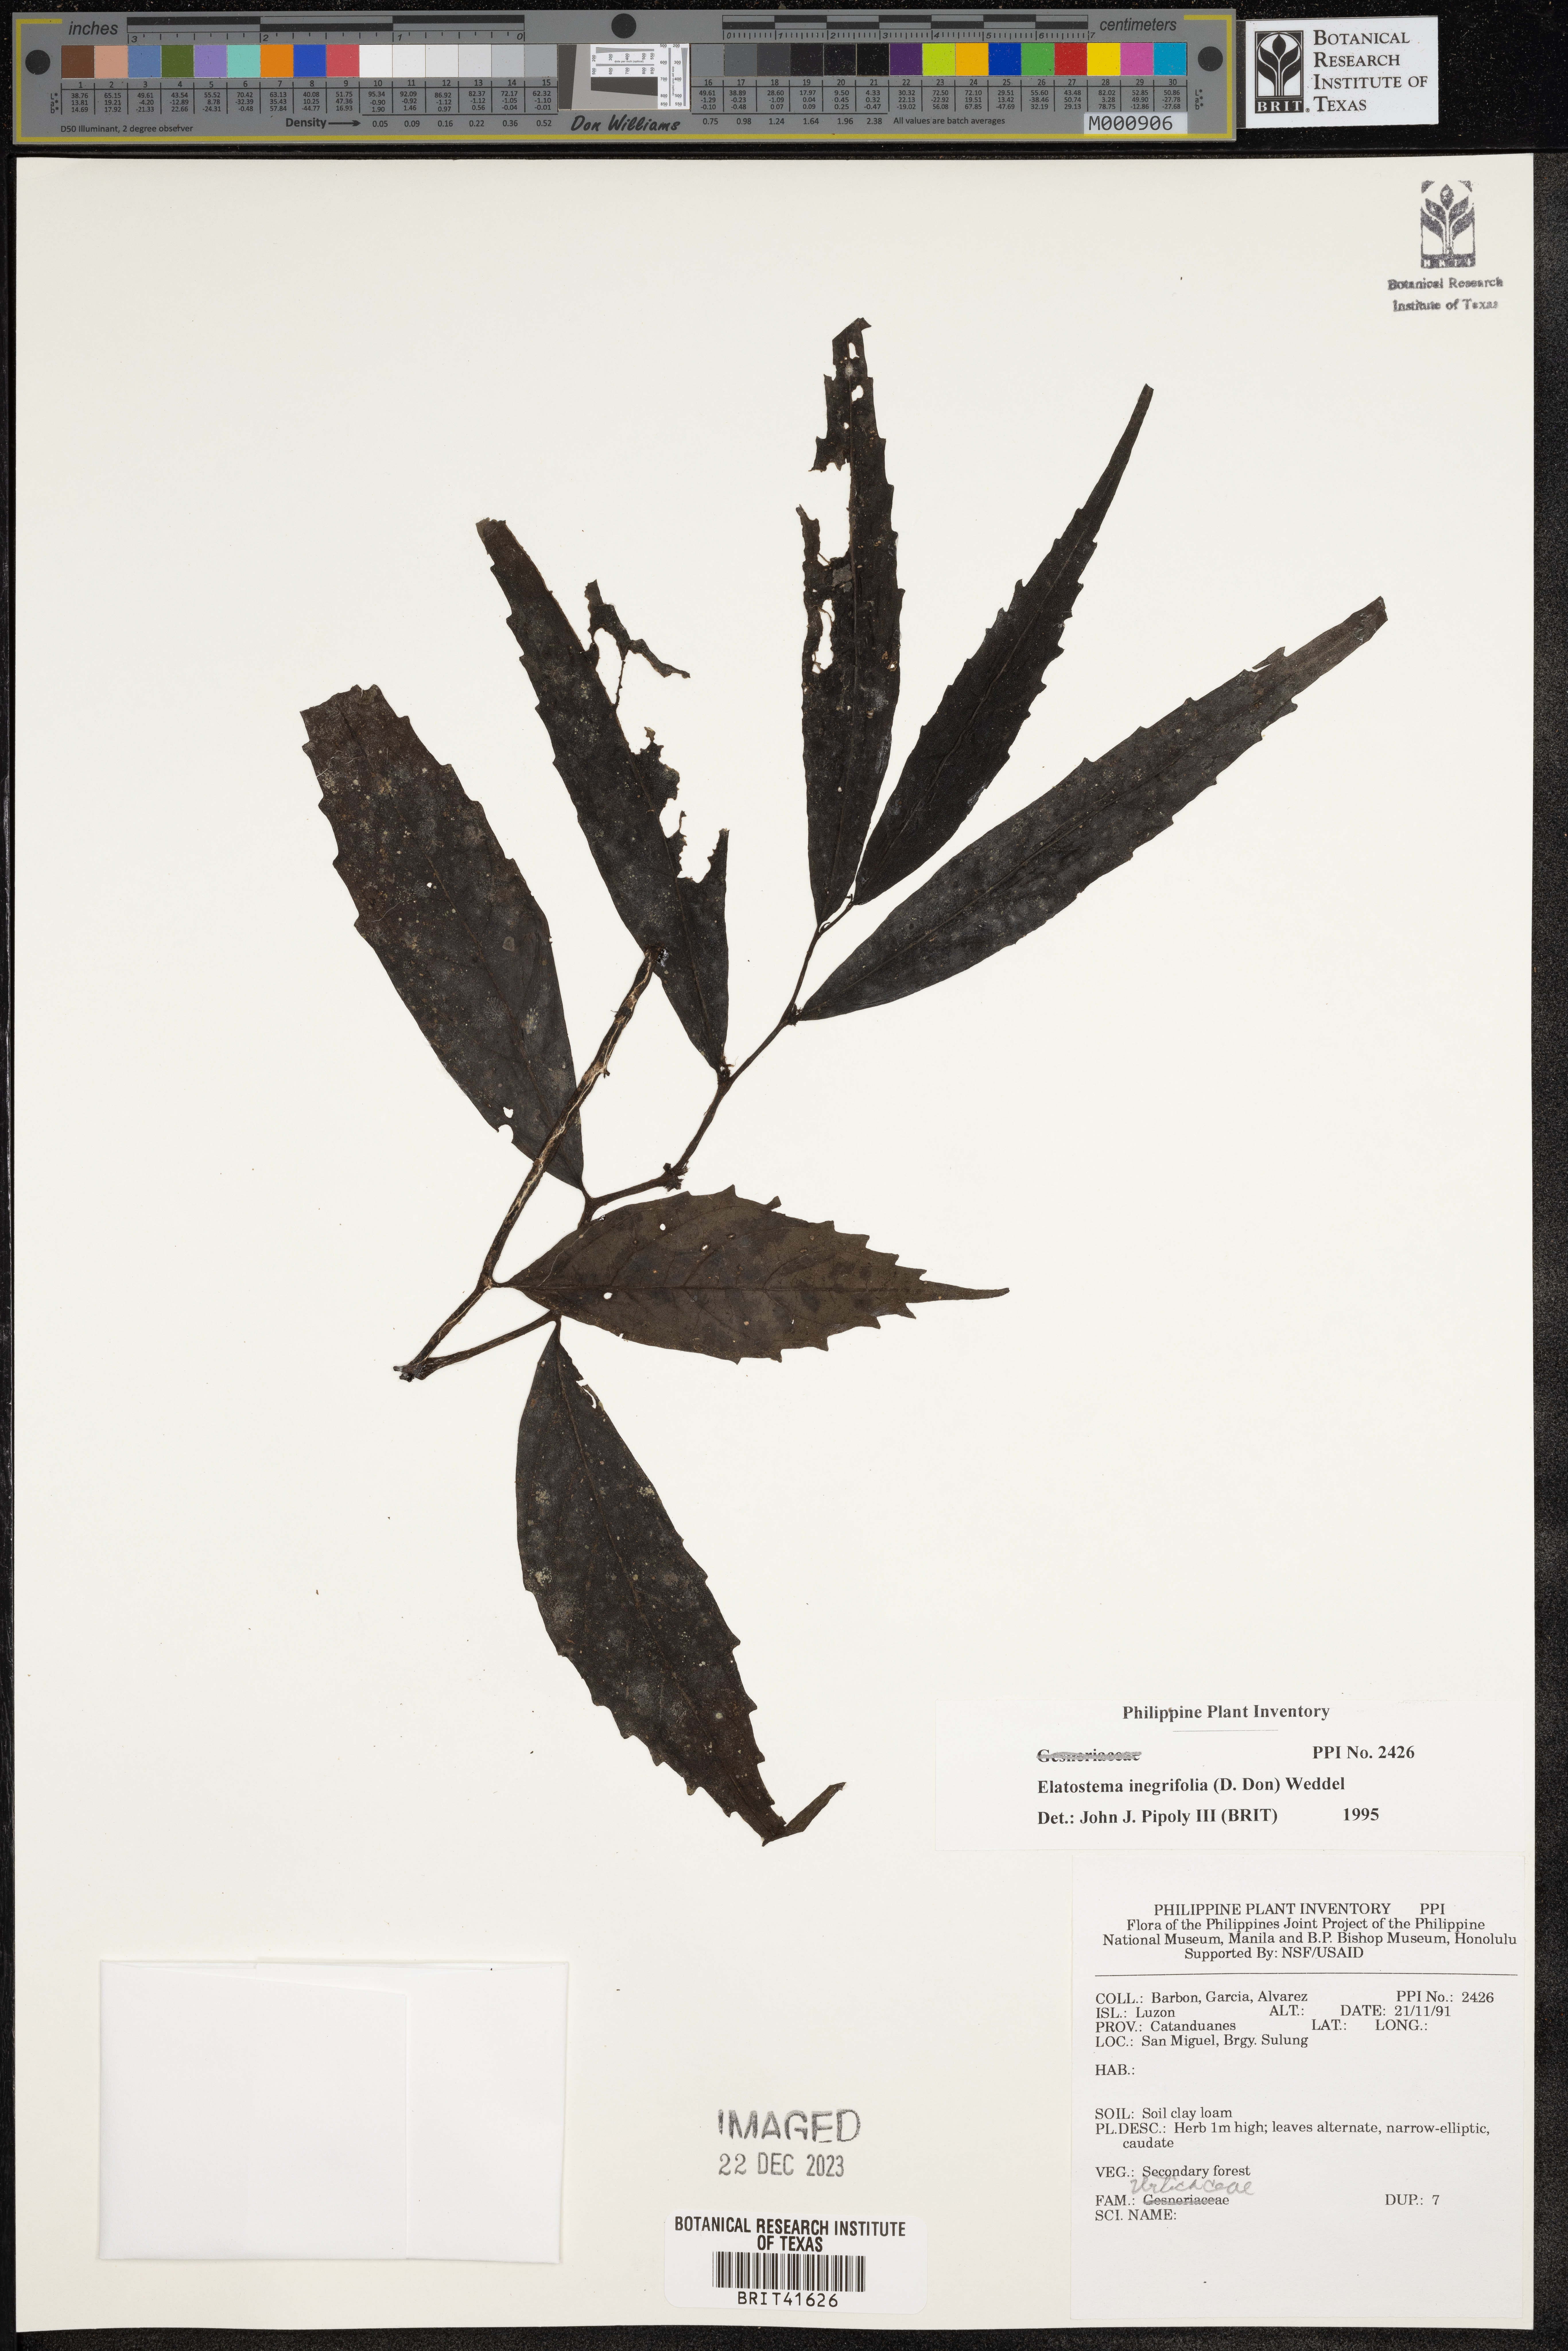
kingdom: Plantae
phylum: Tracheophyta
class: Magnoliopsida
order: Rosales
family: Urticaceae
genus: Elatostema
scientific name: Elatostema integrifolium
